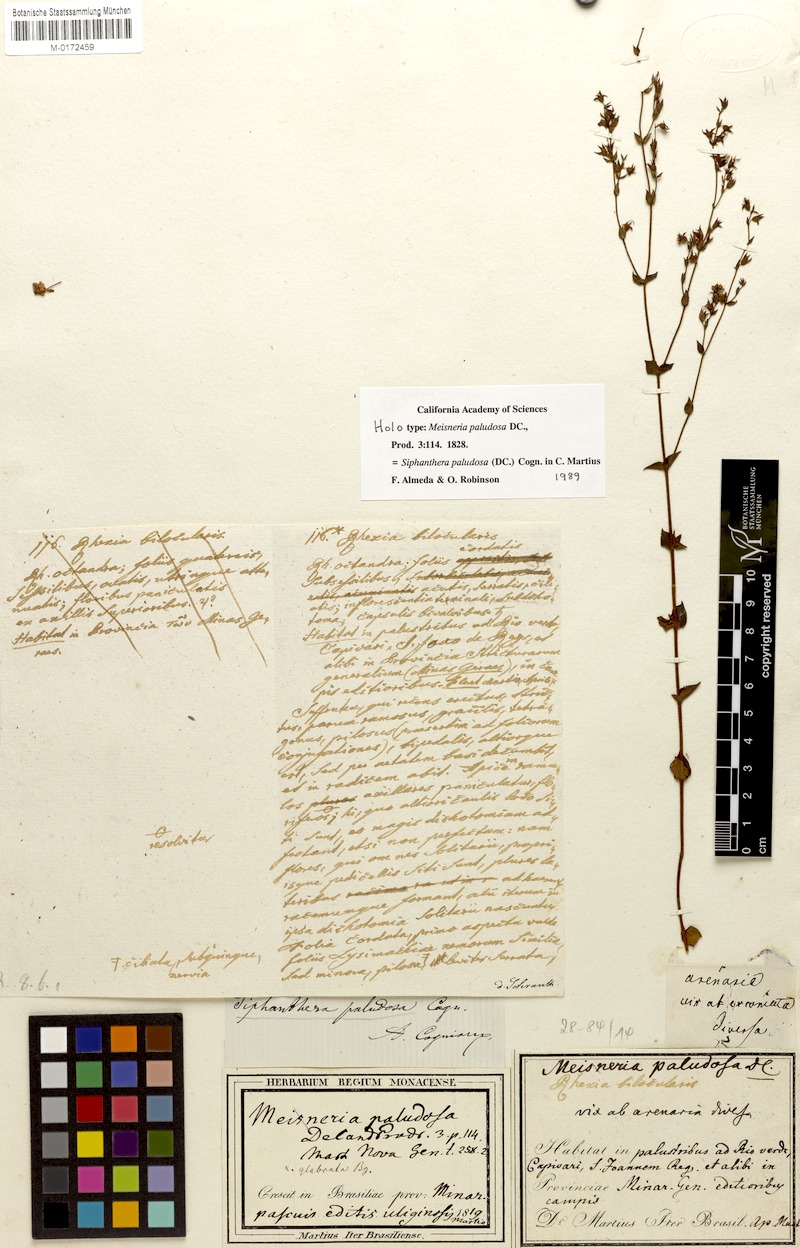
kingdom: Plantae
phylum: Tracheophyta
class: Magnoliopsida
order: Myrtales
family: Melastomataceae
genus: Siphanthera
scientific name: Siphanthera paludosa
